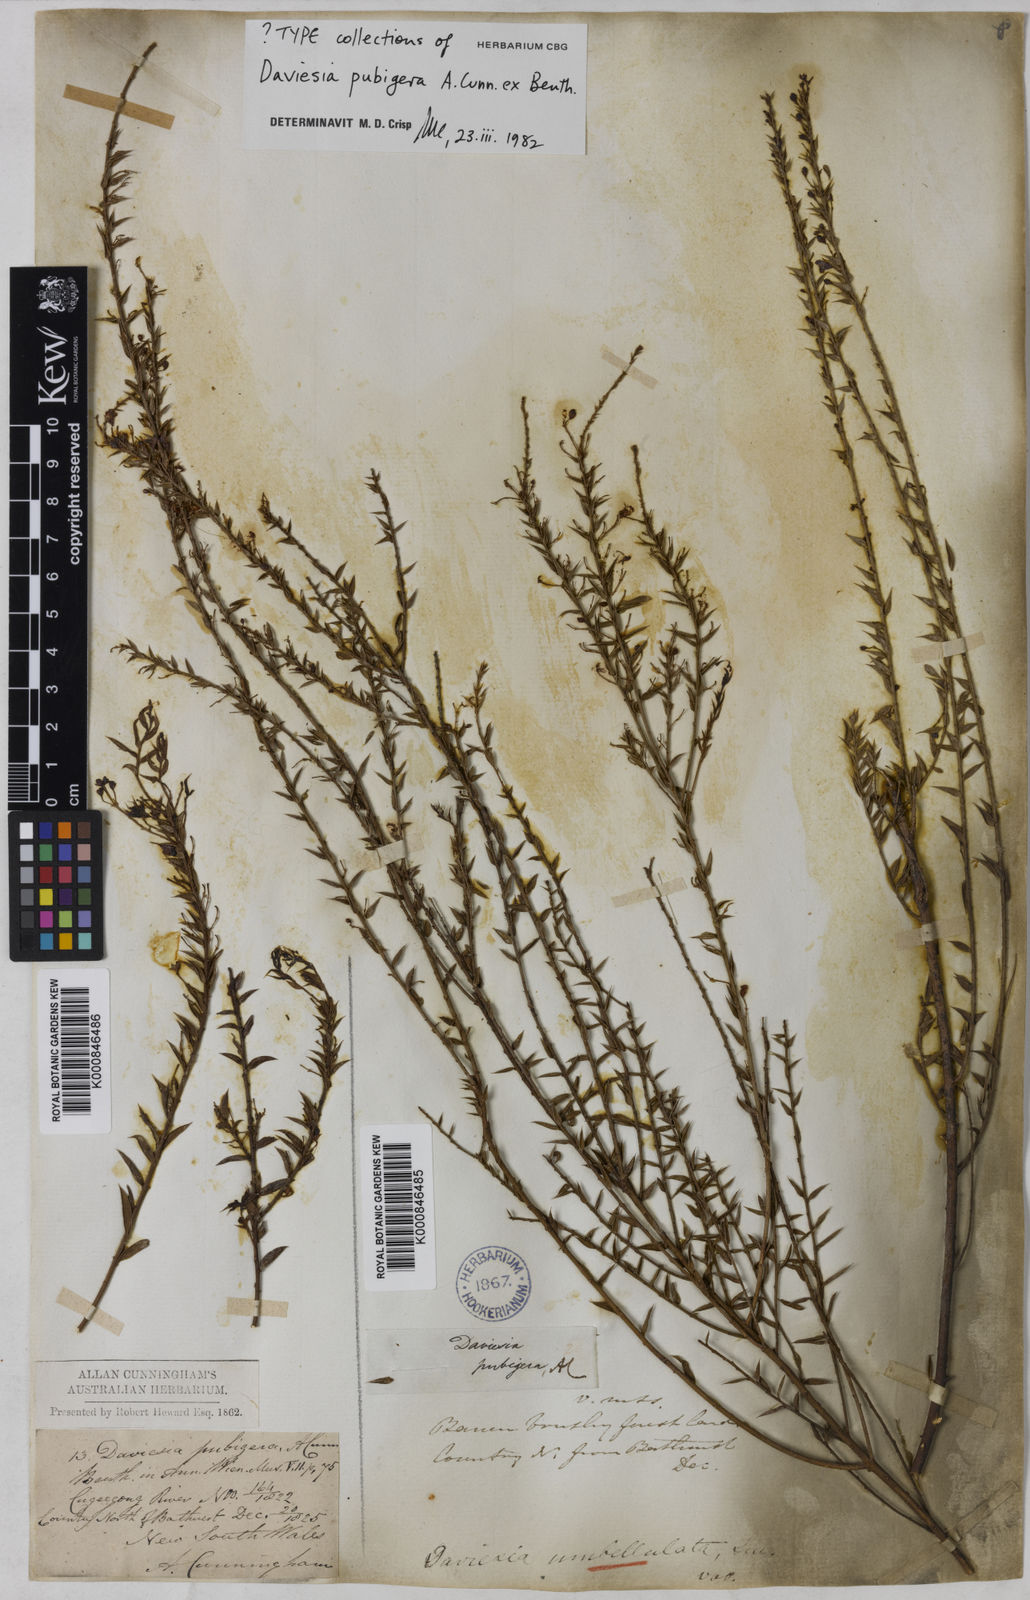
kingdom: Plantae
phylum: Tracheophyta
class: Magnoliopsida
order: Fabales
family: Fabaceae
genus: Daviesia
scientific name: Daviesia pubigera
